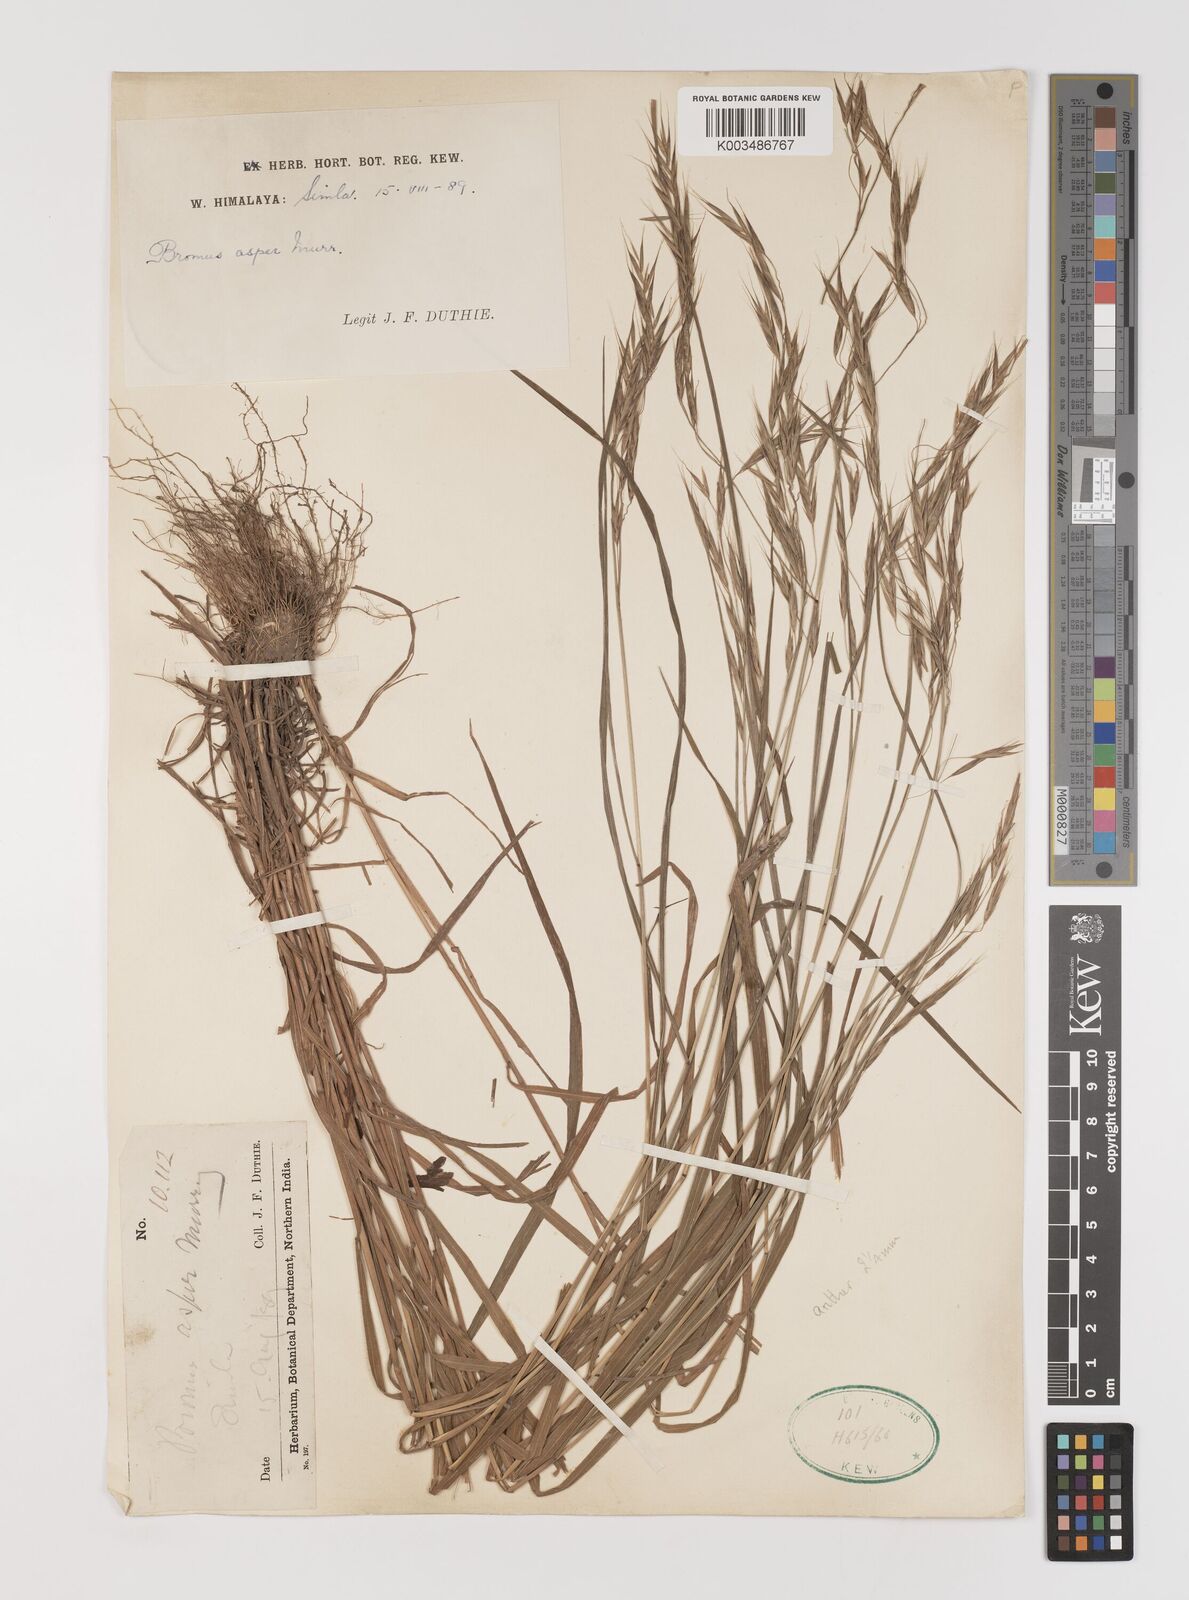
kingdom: Plantae
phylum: Tracheophyta
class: Liliopsida
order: Poales
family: Poaceae
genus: Brachypodium
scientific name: Brachypodium retusum
